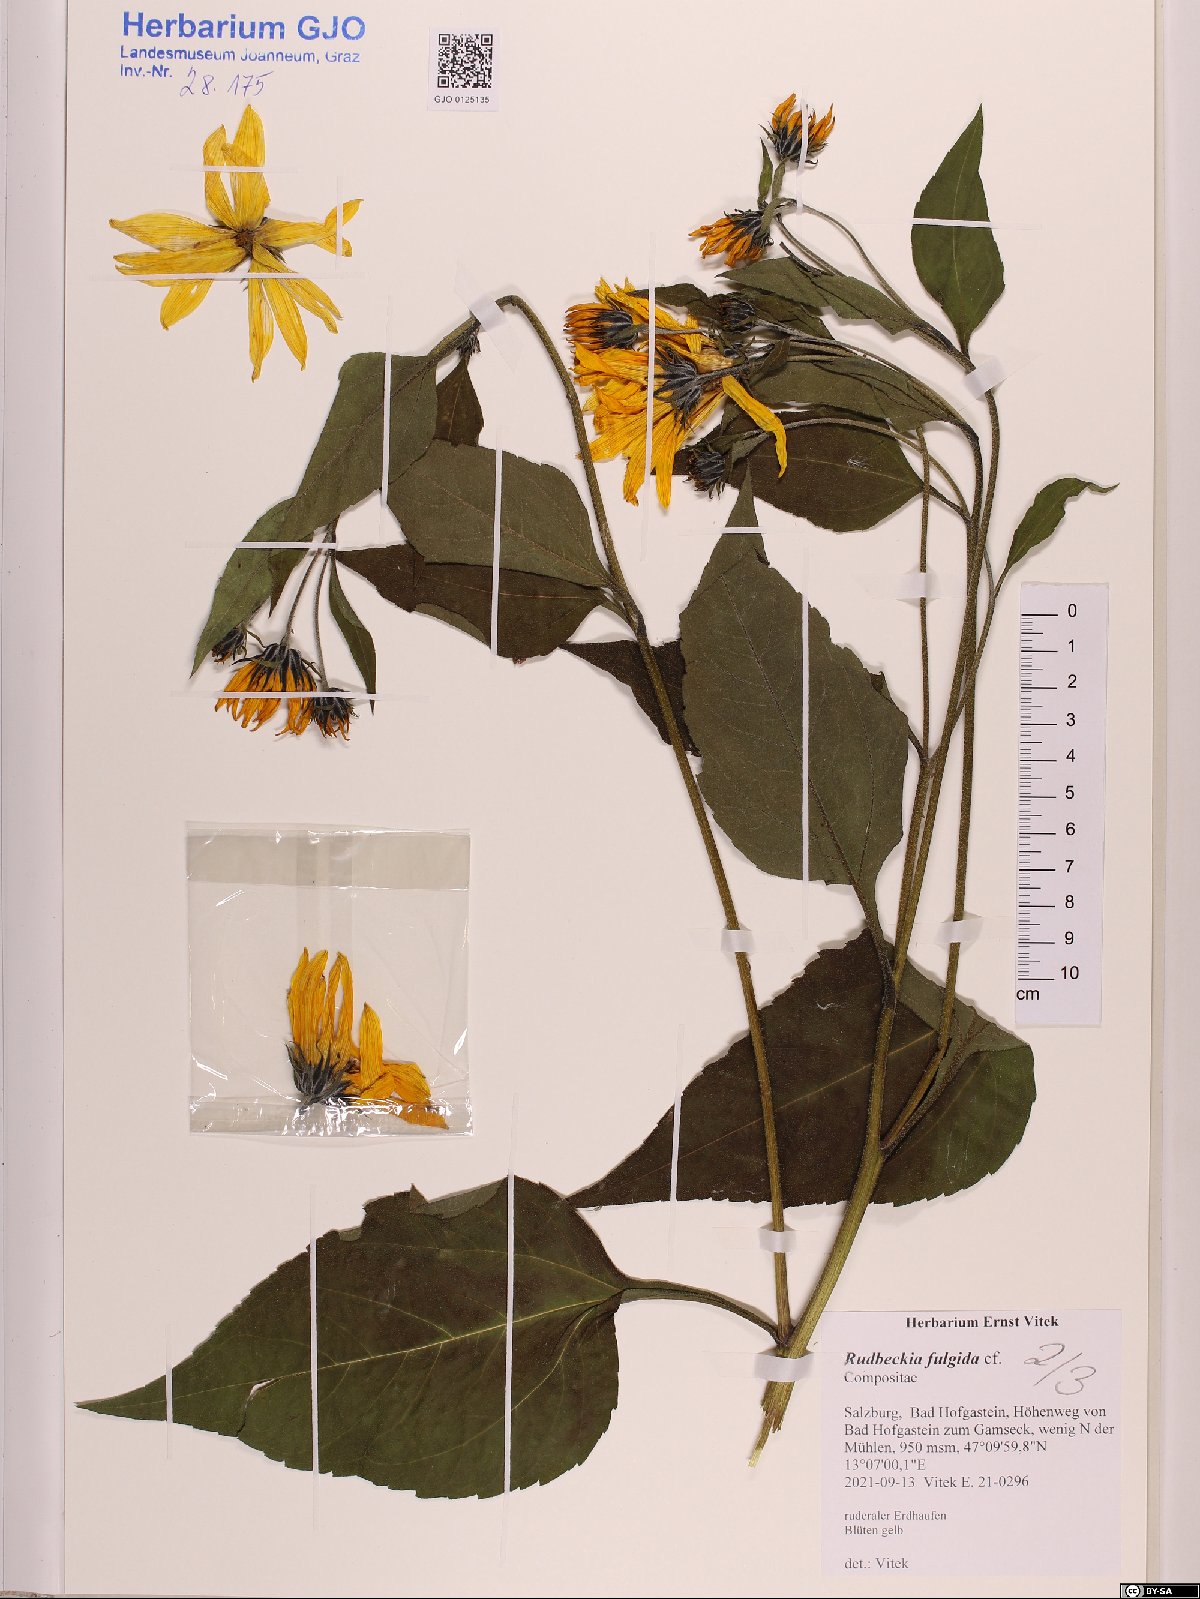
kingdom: Plantae
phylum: Tracheophyta
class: Magnoliopsida
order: Asterales
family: Asteraceae
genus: Rudbeckia
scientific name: Rudbeckia fulgida
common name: Perennial coneflower
